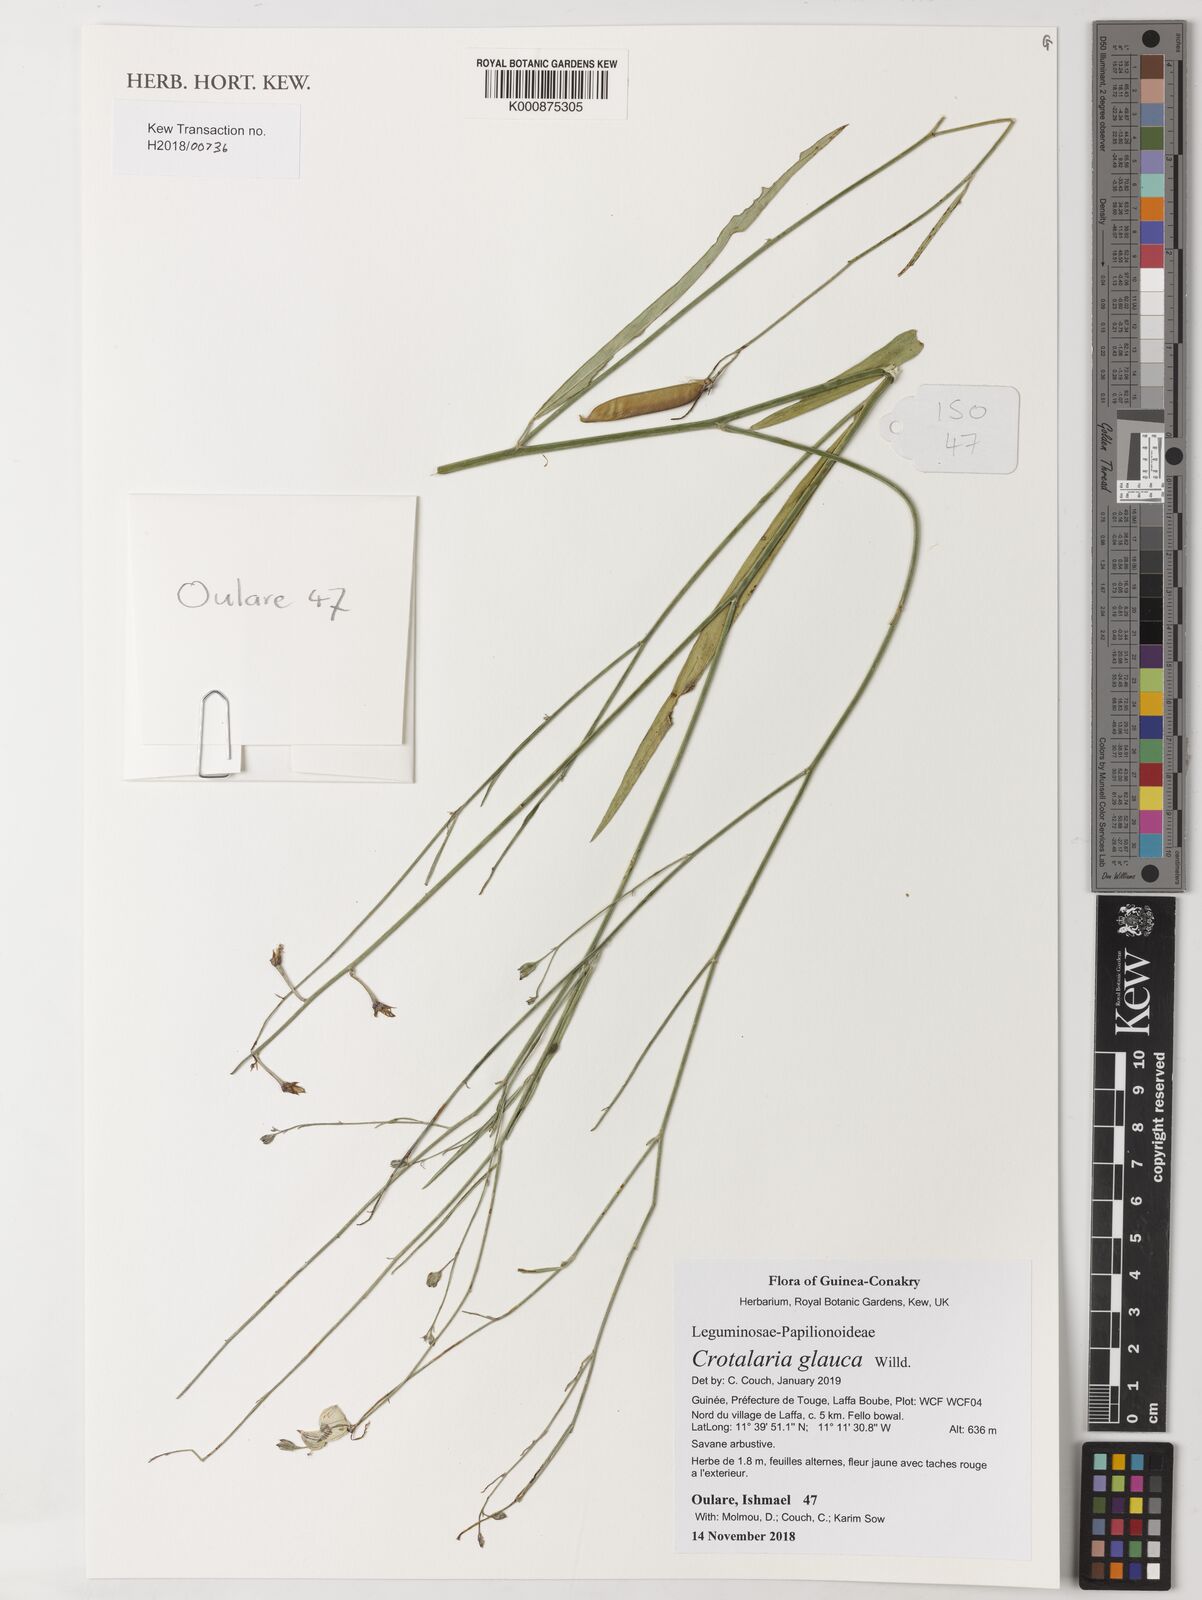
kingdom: Plantae
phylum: Tracheophyta
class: Magnoliopsida
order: Fabales
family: Fabaceae
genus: Crotalaria
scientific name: Crotalaria glauca
